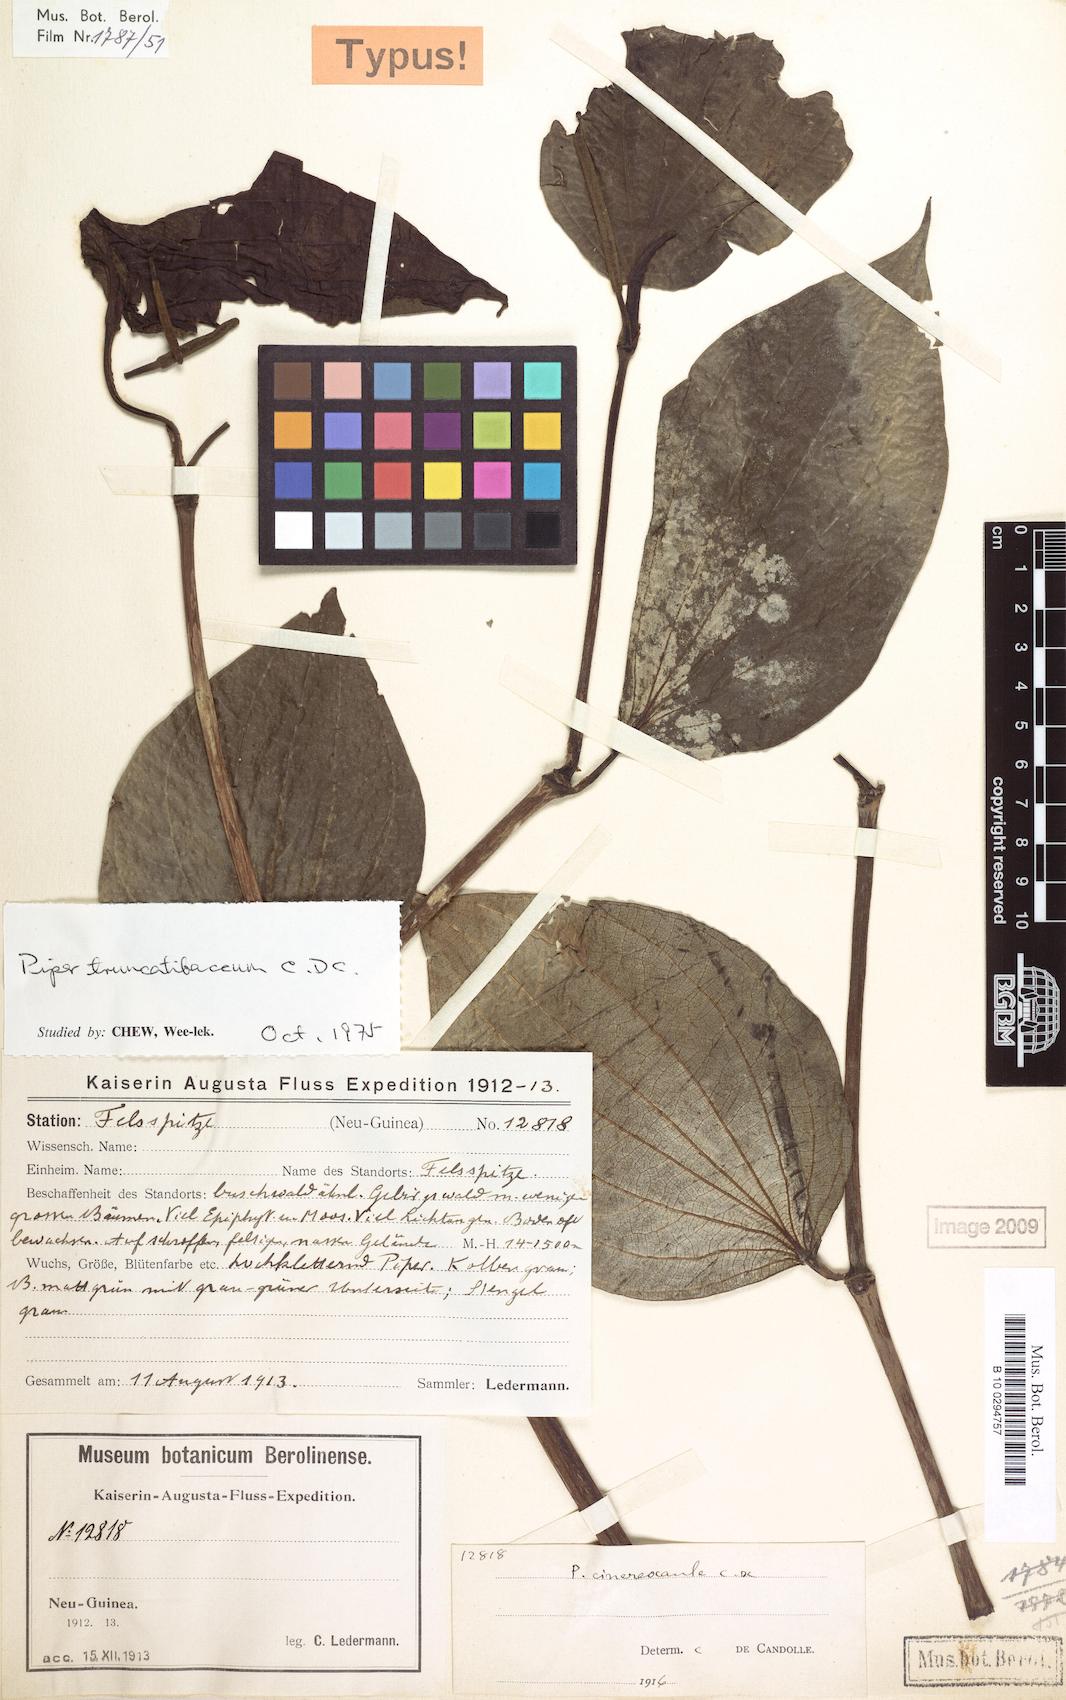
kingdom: Plantae
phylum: Tracheophyta
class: Magnoliopsida
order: Piperales
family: Piperaceae
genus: Piper
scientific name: Piper truncatibaccum
